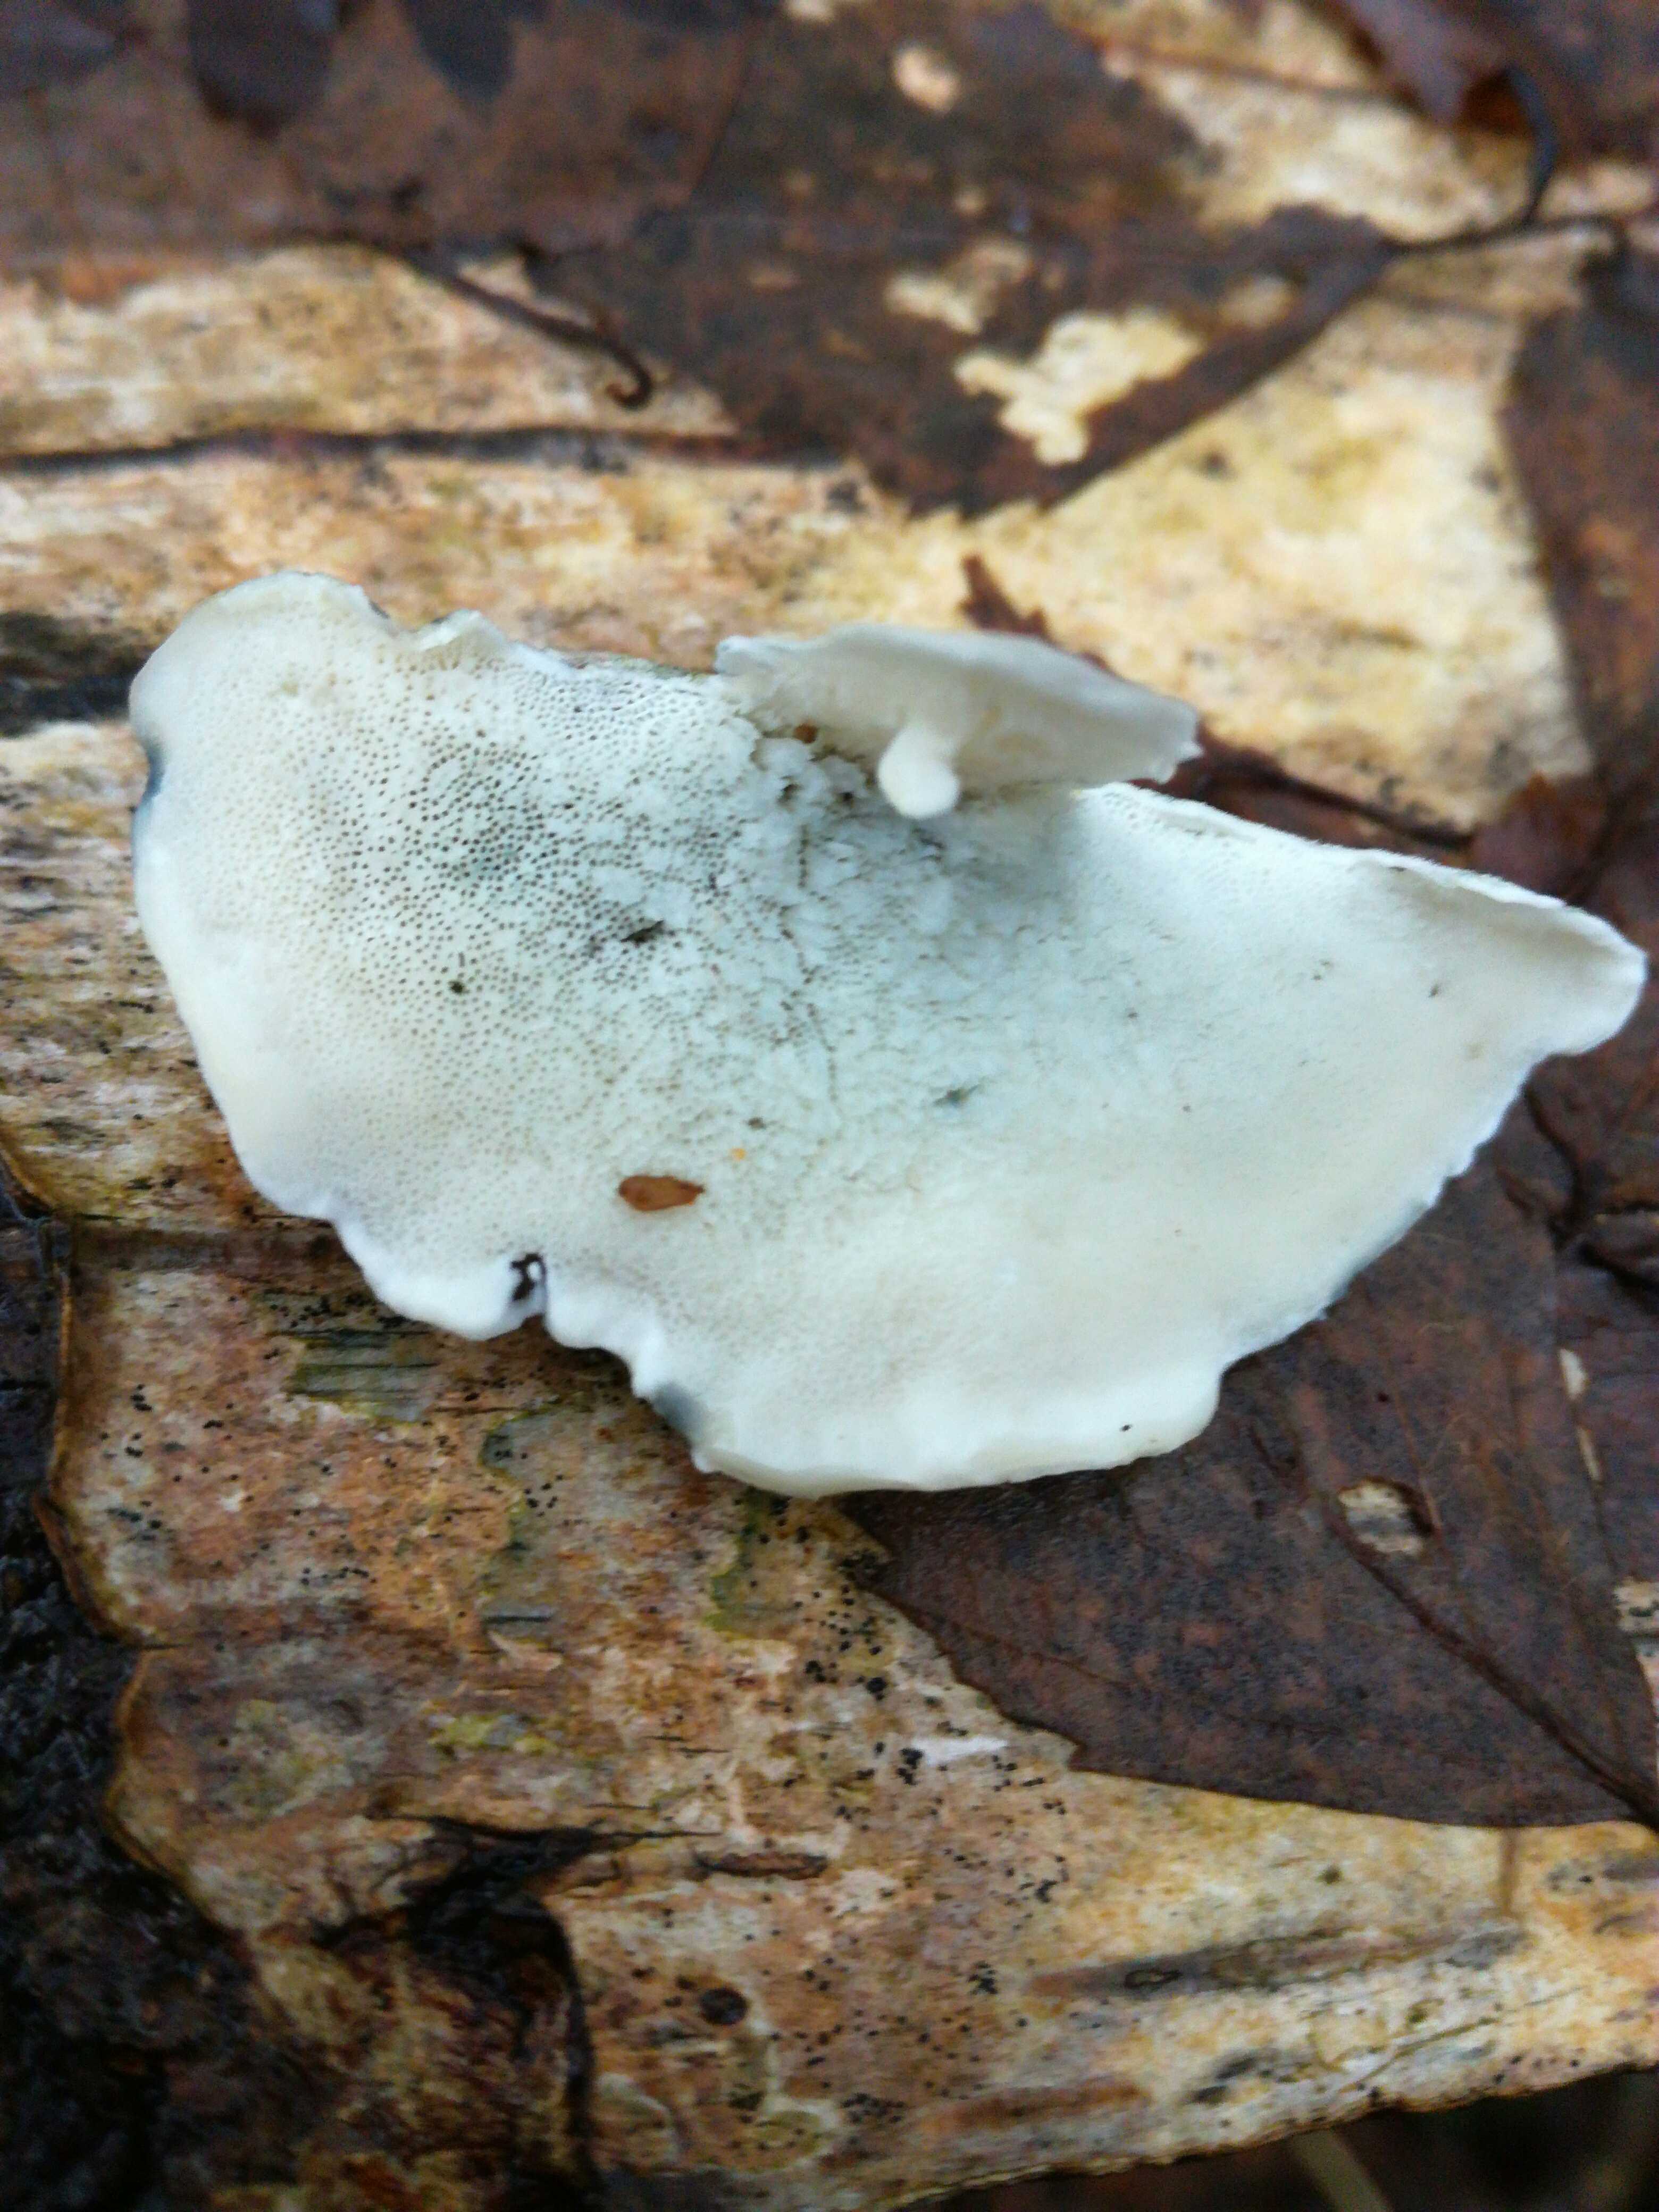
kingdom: Fungi
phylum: Basidiomycota
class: Agaricomycetes
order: Polyporales
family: Polyporaceae
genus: Cyanosporus
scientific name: Cyanosporus alni
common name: blegblå kødporesvamp
